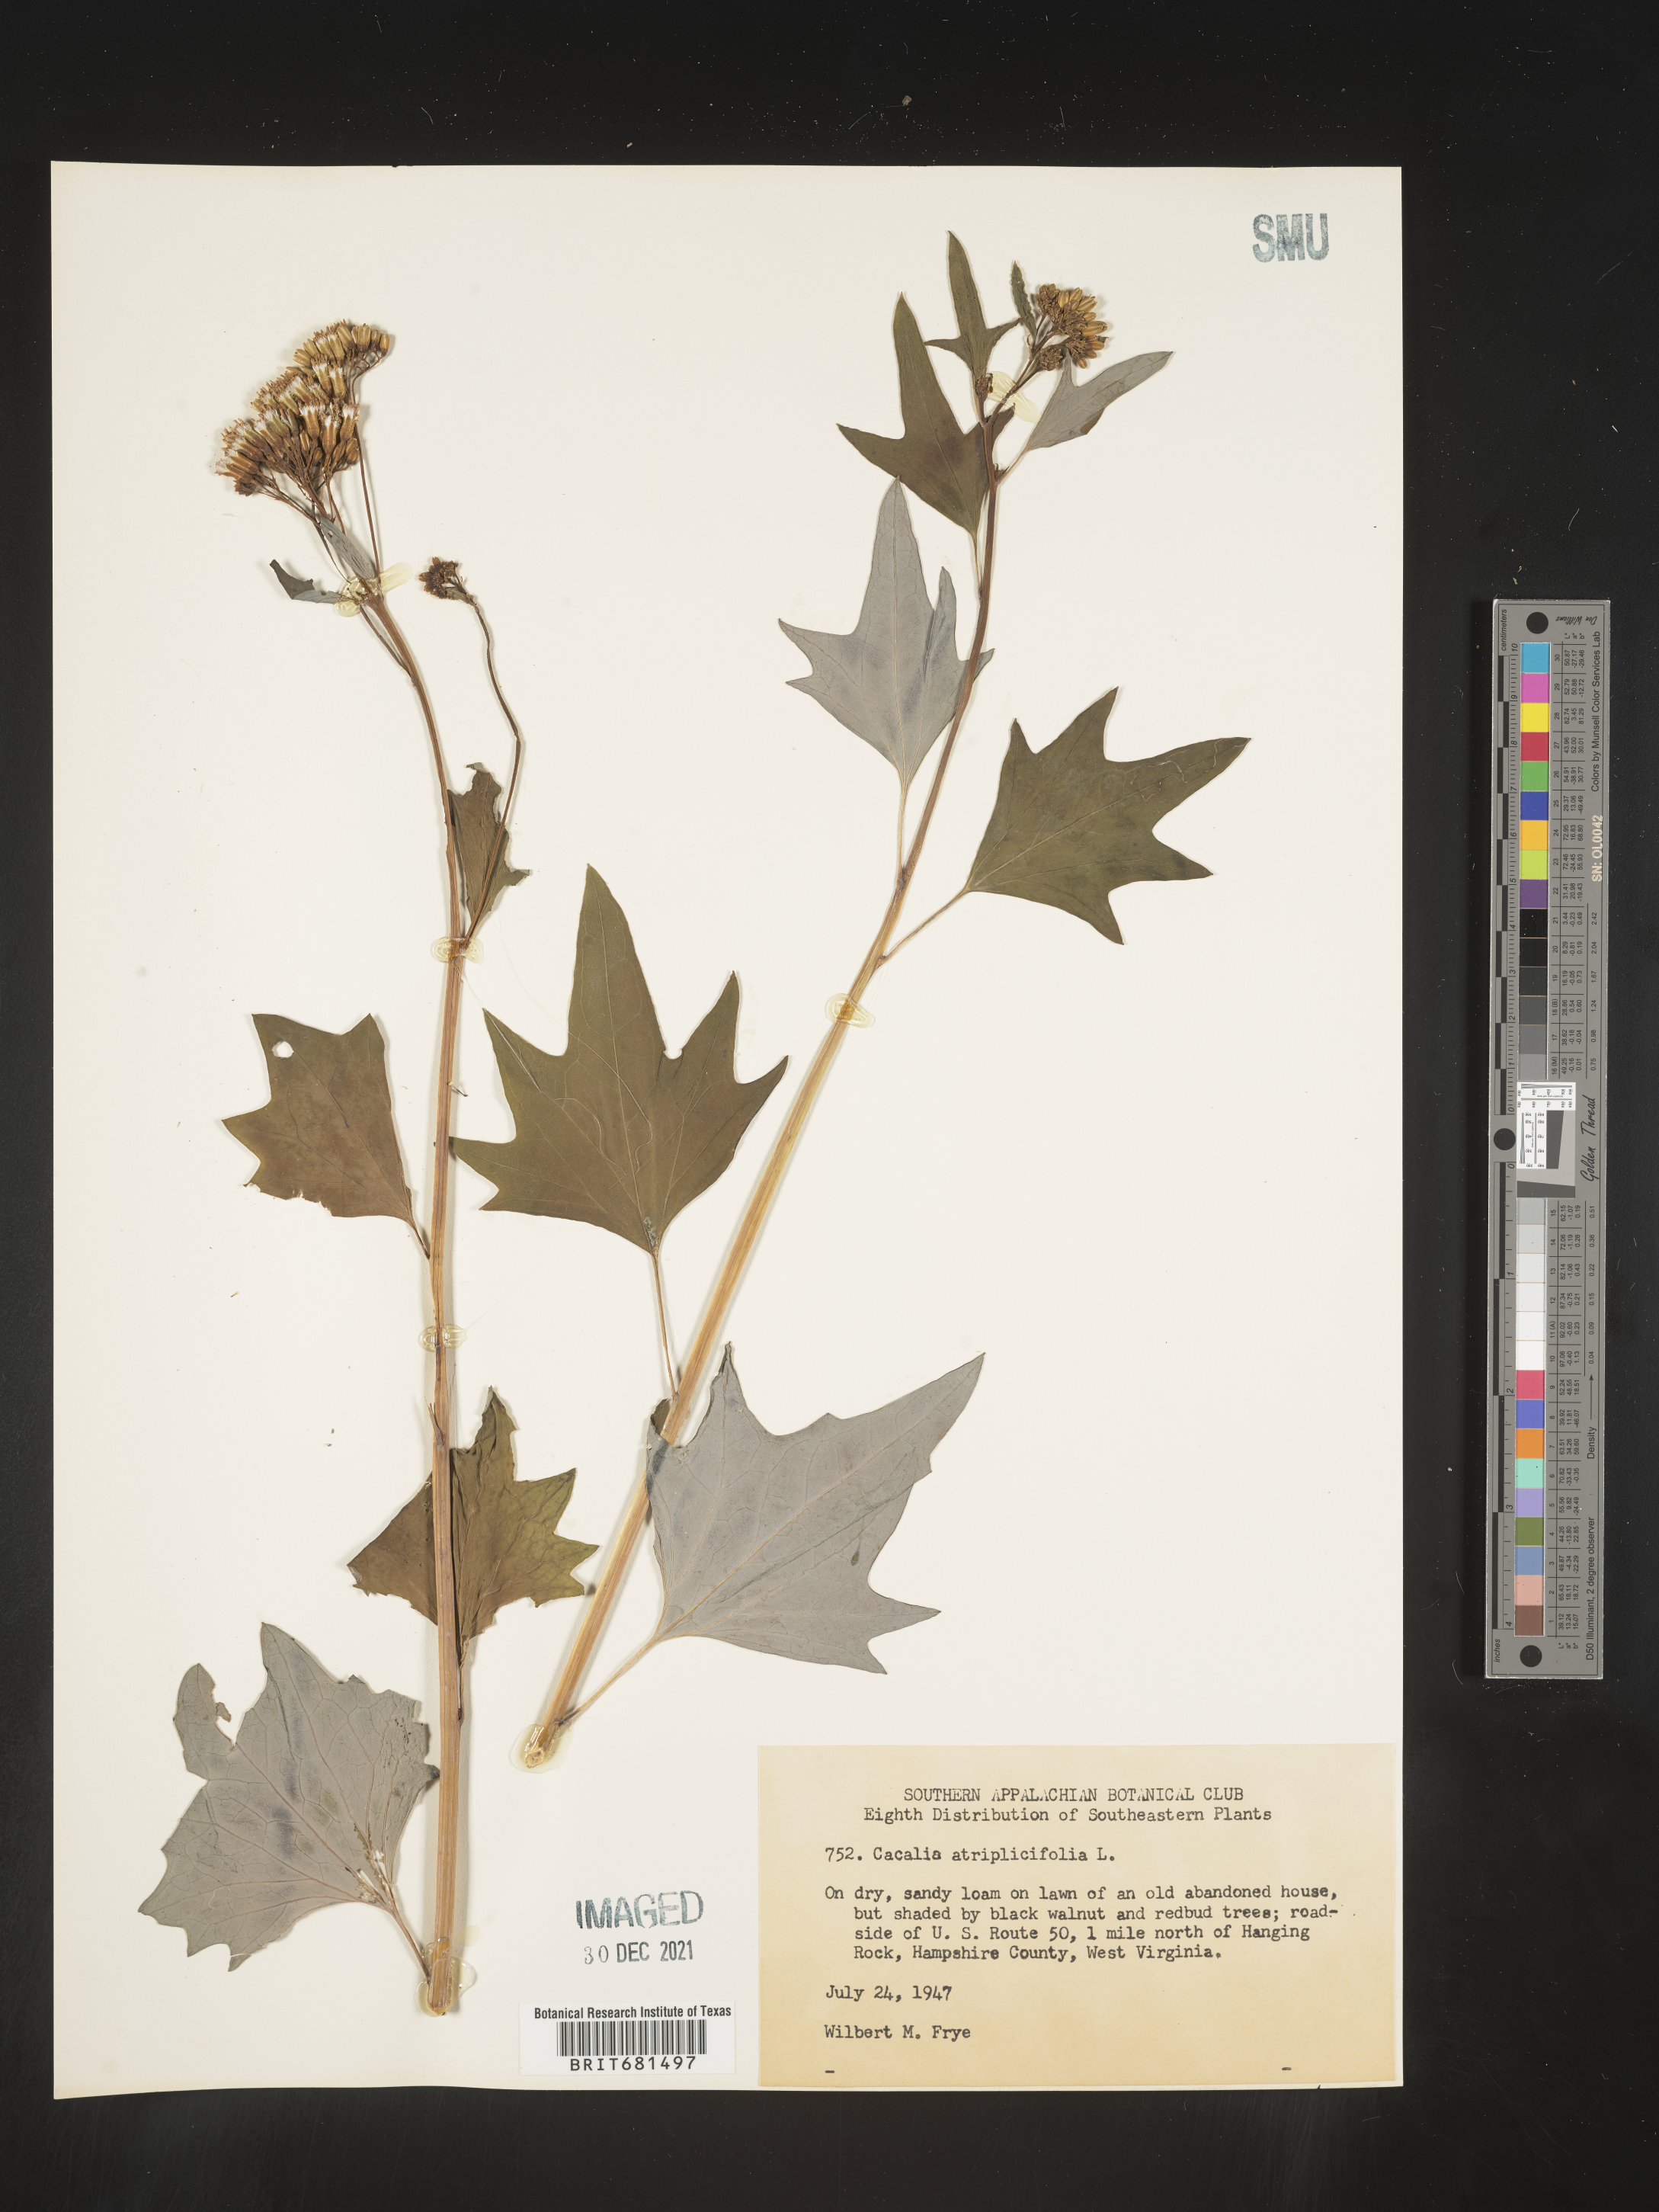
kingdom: Plantae
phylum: Tracheophyta
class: Magnoliopsida
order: Asterales
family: Asteraceae
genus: Arnoglossum
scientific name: Arnoglossum atriplicifolium
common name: Pale indian-plantain
